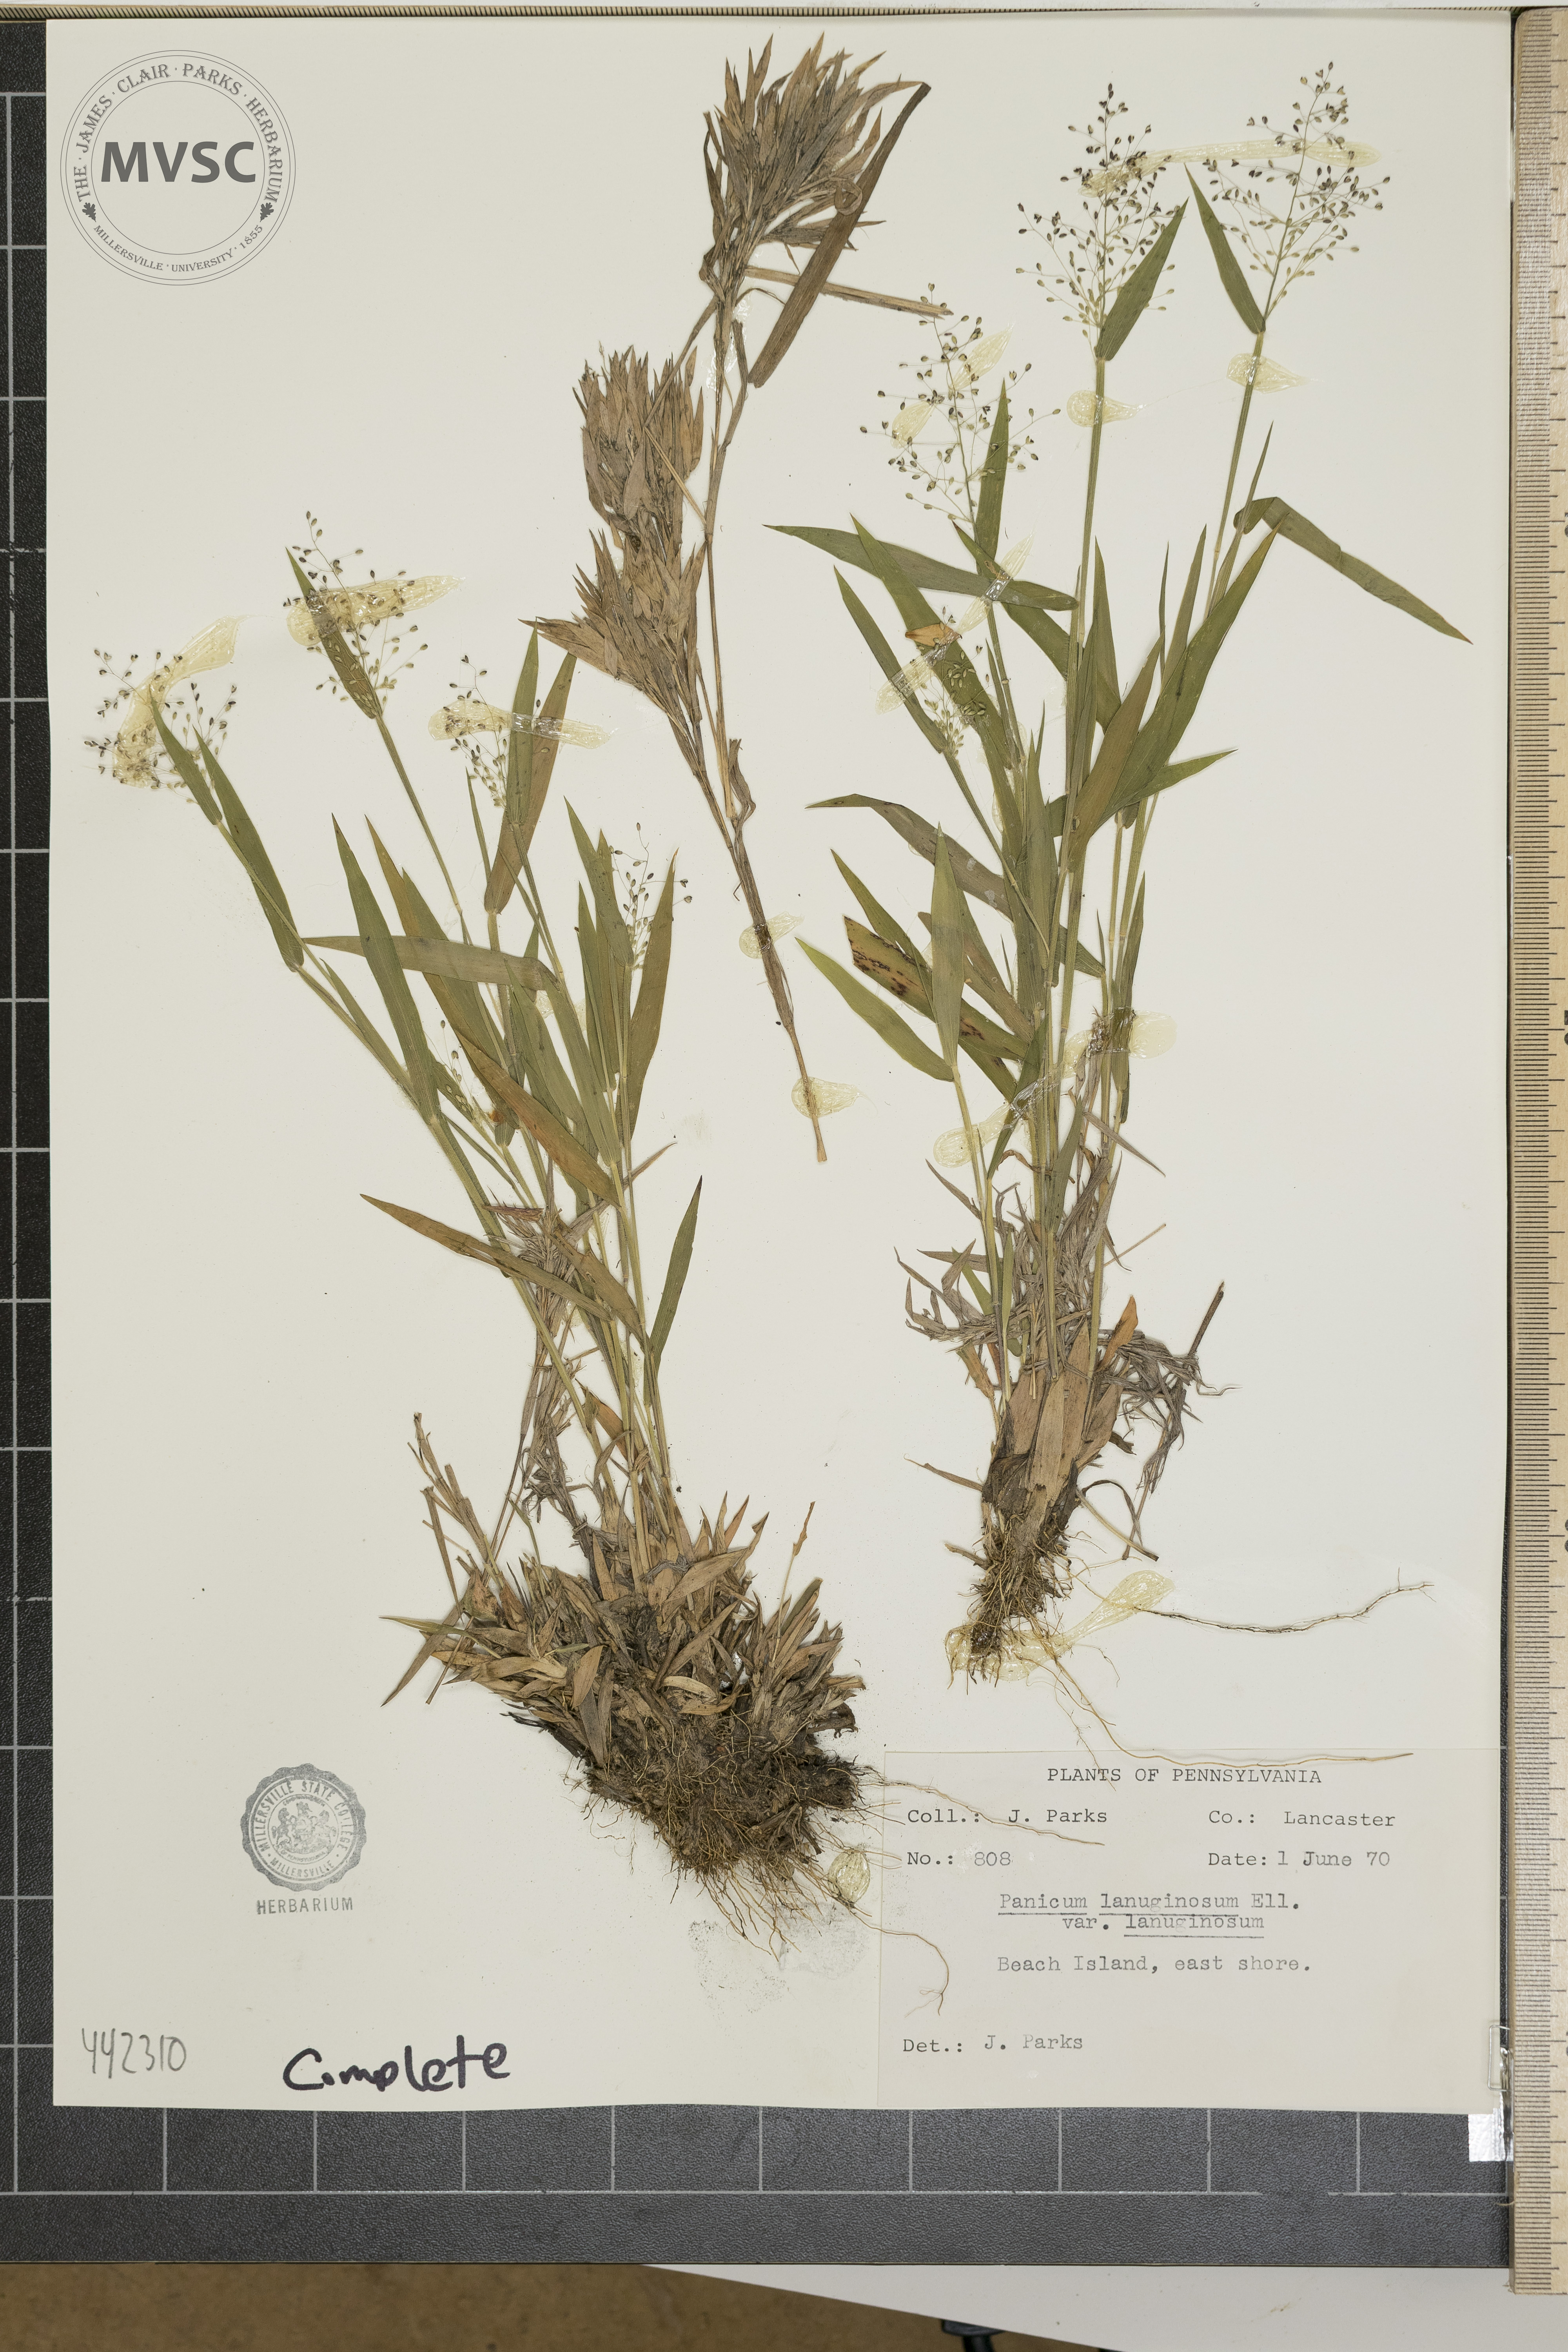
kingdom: Plantae
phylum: Tracheophyta
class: Liliopsida
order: Poales
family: Poaceae
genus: Dichanthelium
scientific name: Dichanthelium
